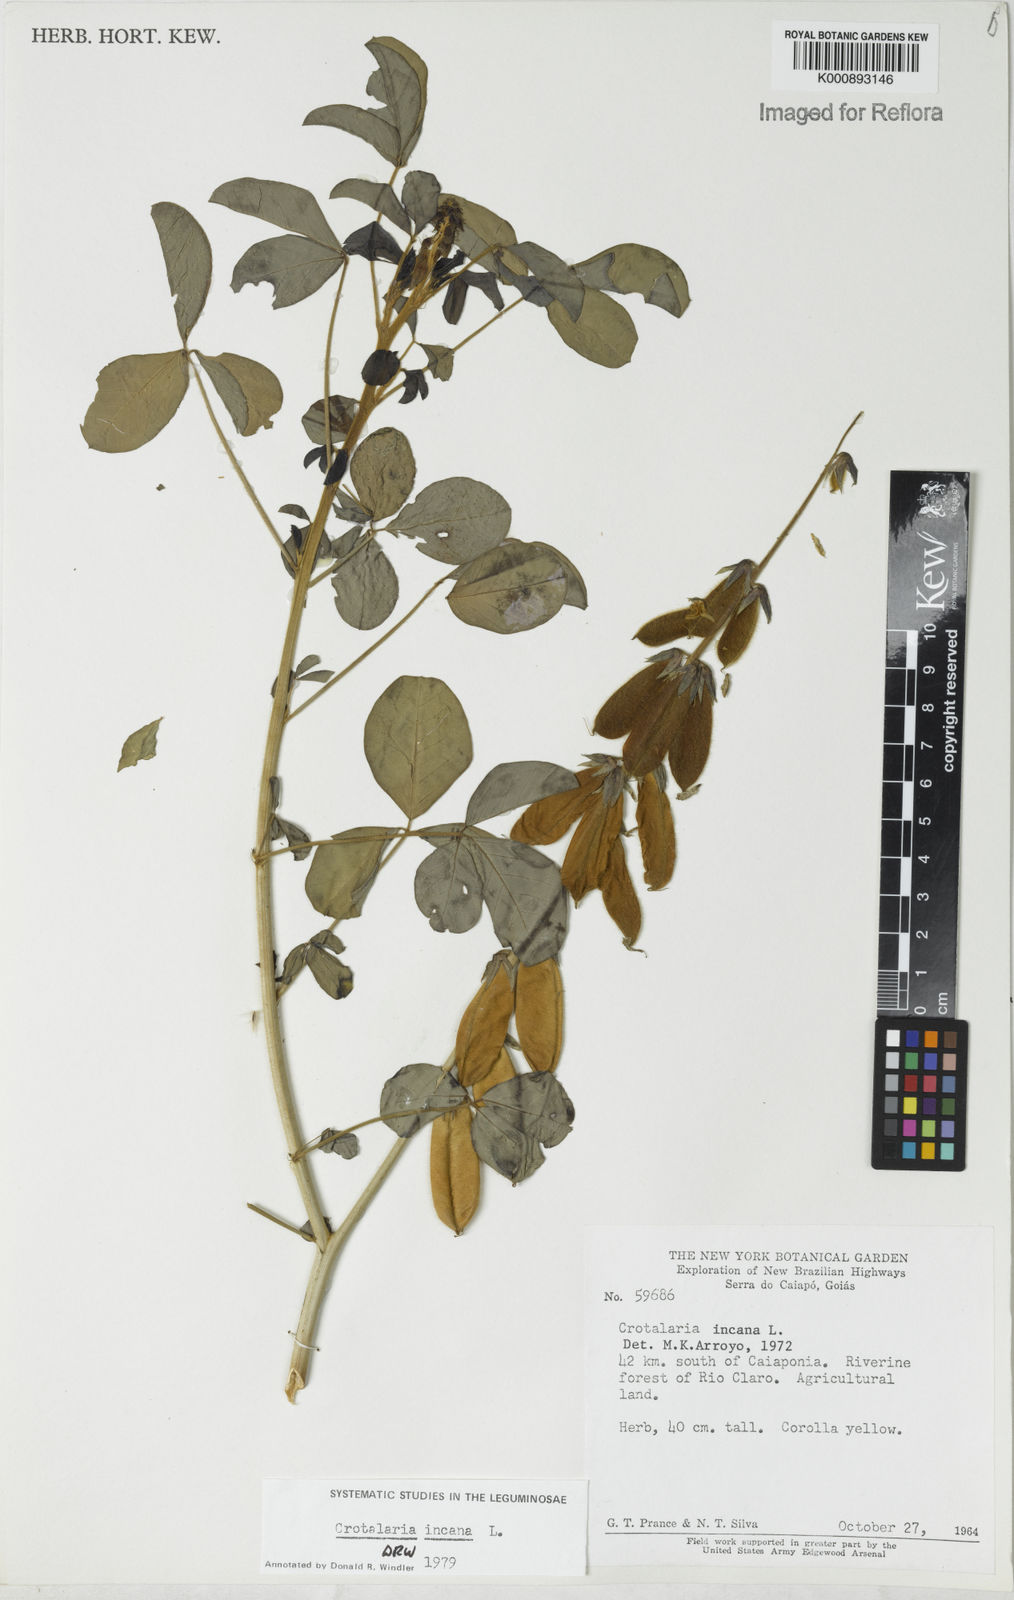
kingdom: Plantae
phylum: Tracheophyta
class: Magnoliopsida
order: Fabales
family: Fabaceae
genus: Crotalaria
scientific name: Crotalaria incana
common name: Shakeshake
